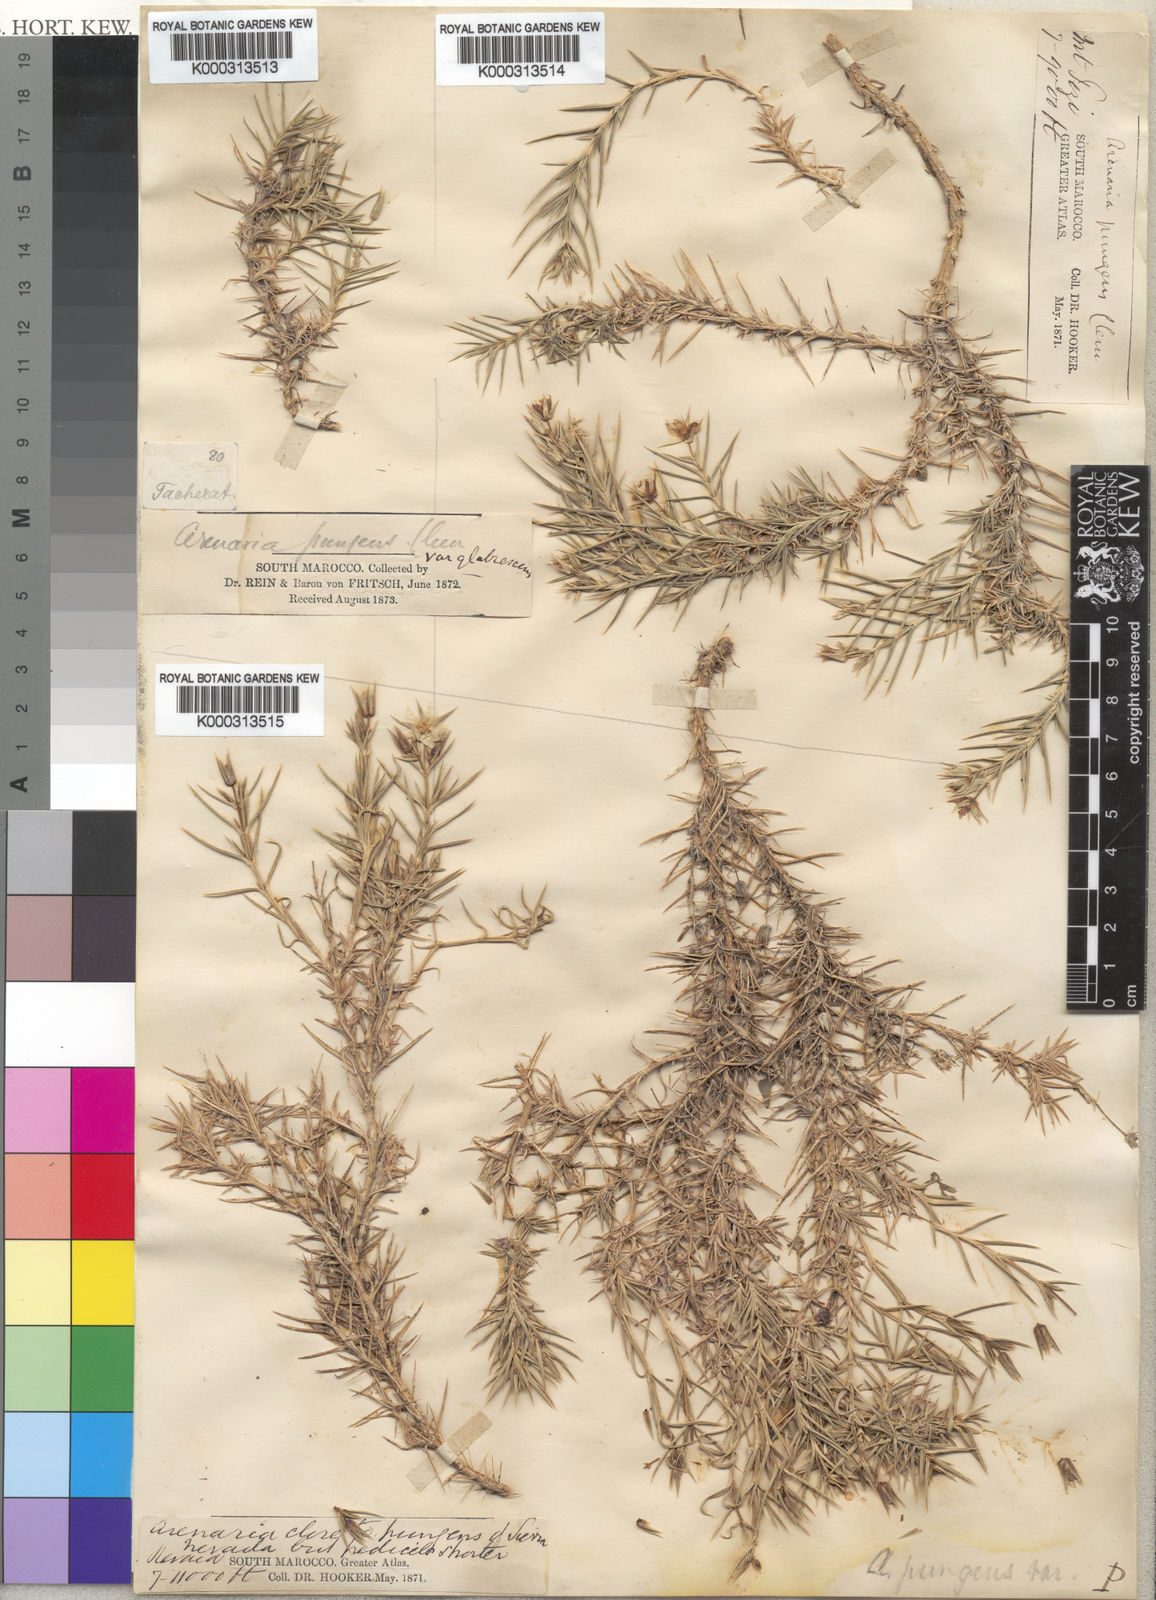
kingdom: Plantae
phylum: Tracheophyta
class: Magnoliopsida
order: Caryophyllales
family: Caryophyllaceae
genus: Arenaria
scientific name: Arenaria
